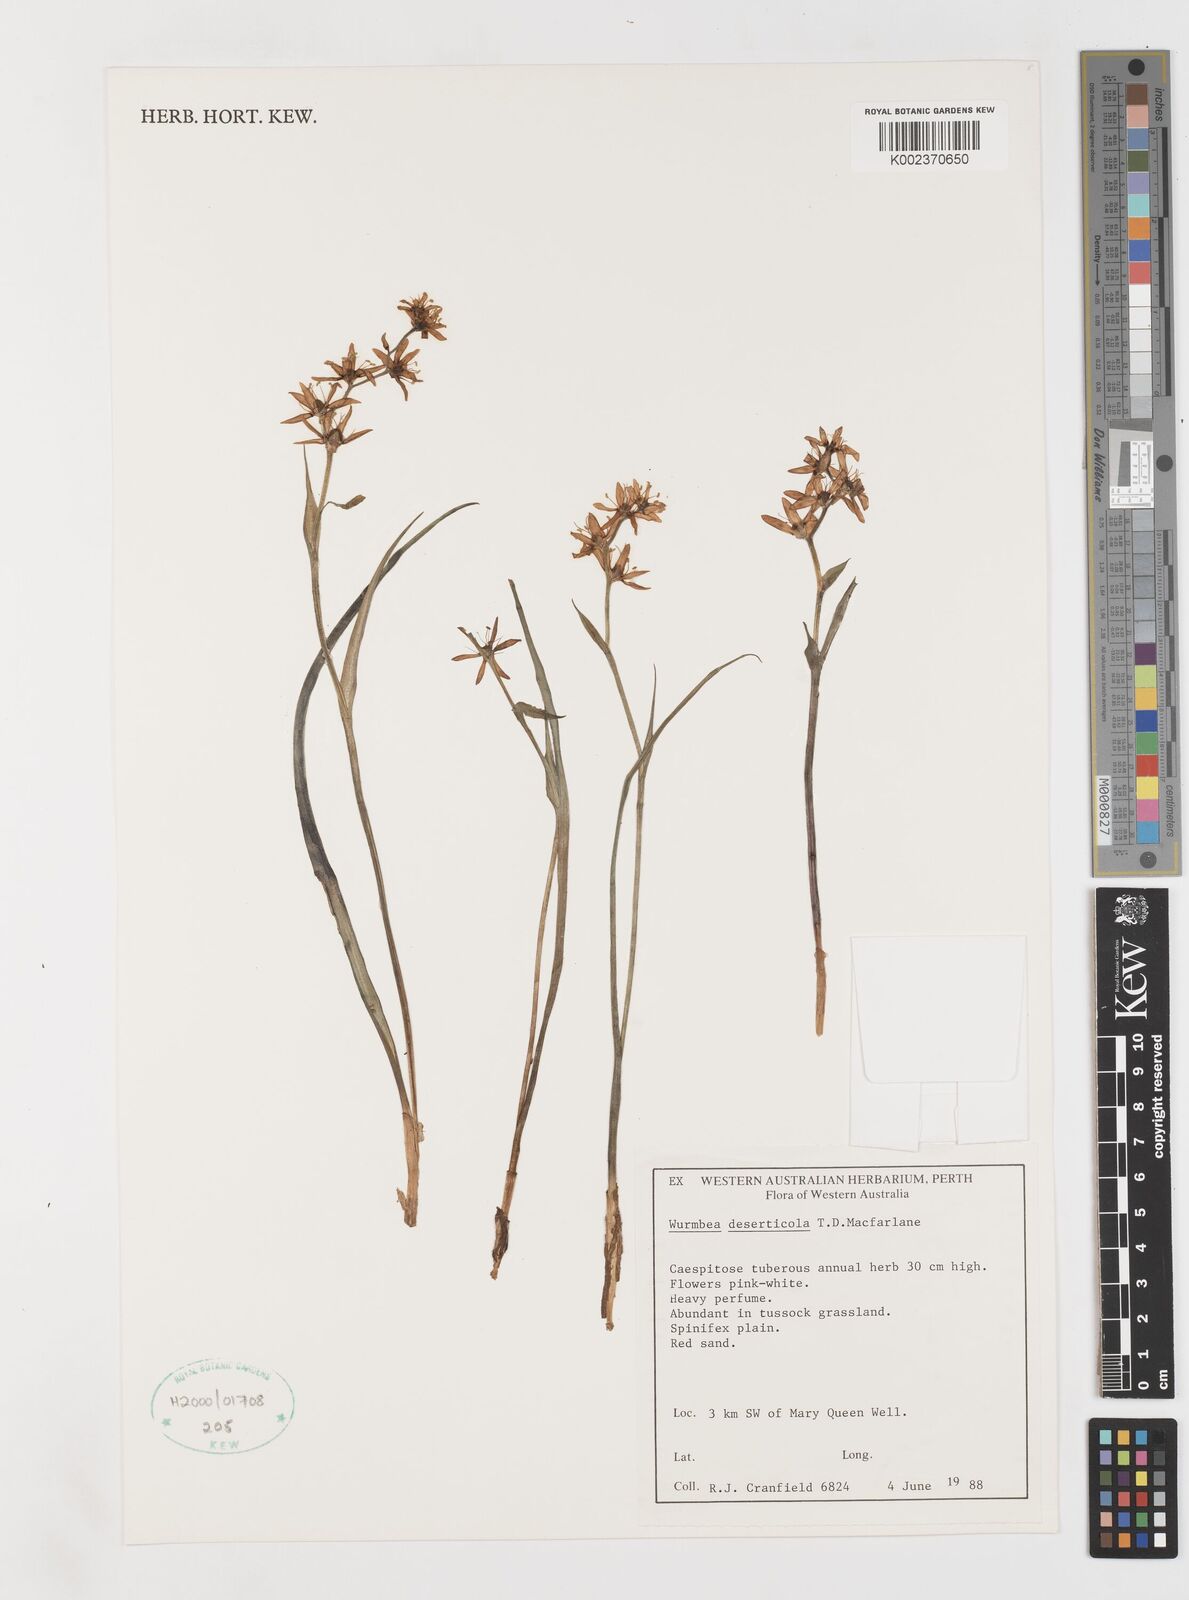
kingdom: Plantae
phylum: Tracheophyta
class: Liliopsida
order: Liliales
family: Colchicaceae
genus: Wurmbea
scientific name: Wurmbea deserticola
